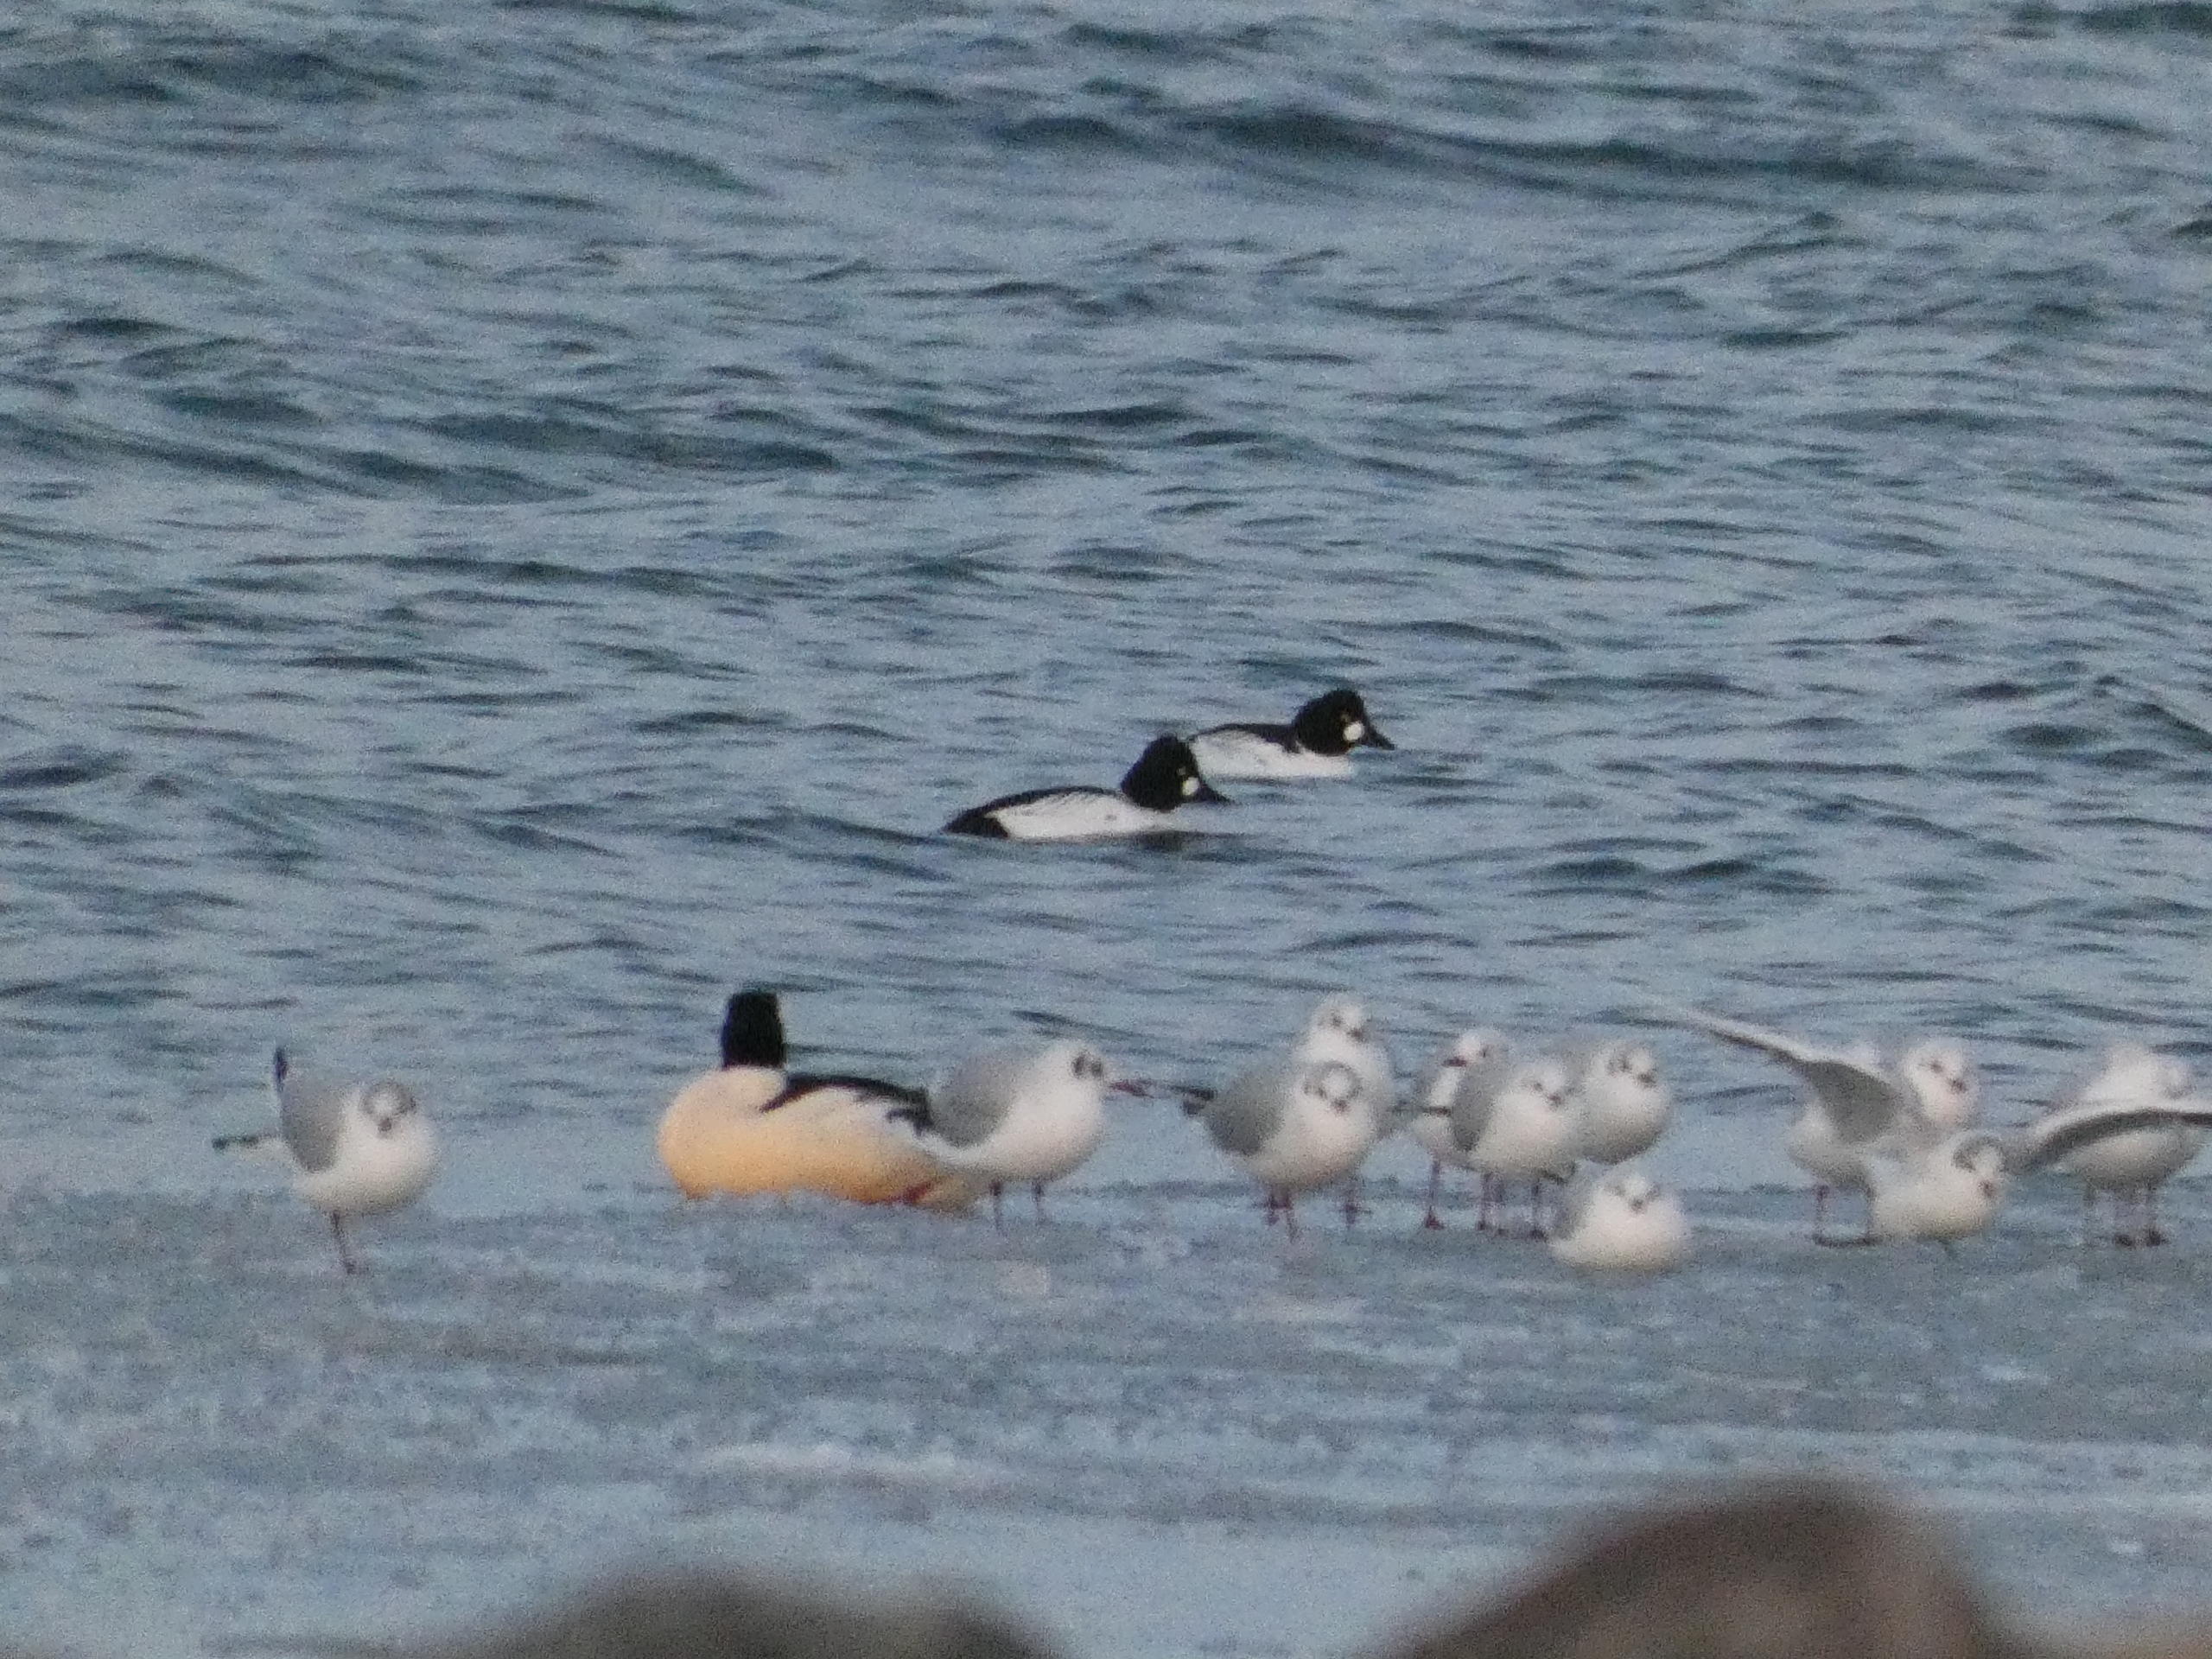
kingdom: Animalia
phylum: Chordata
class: Aves
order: Charadriiformes
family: Laridae
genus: Chroicocephalus
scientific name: Chroicocephalus ridibundus
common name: Hættemåge
